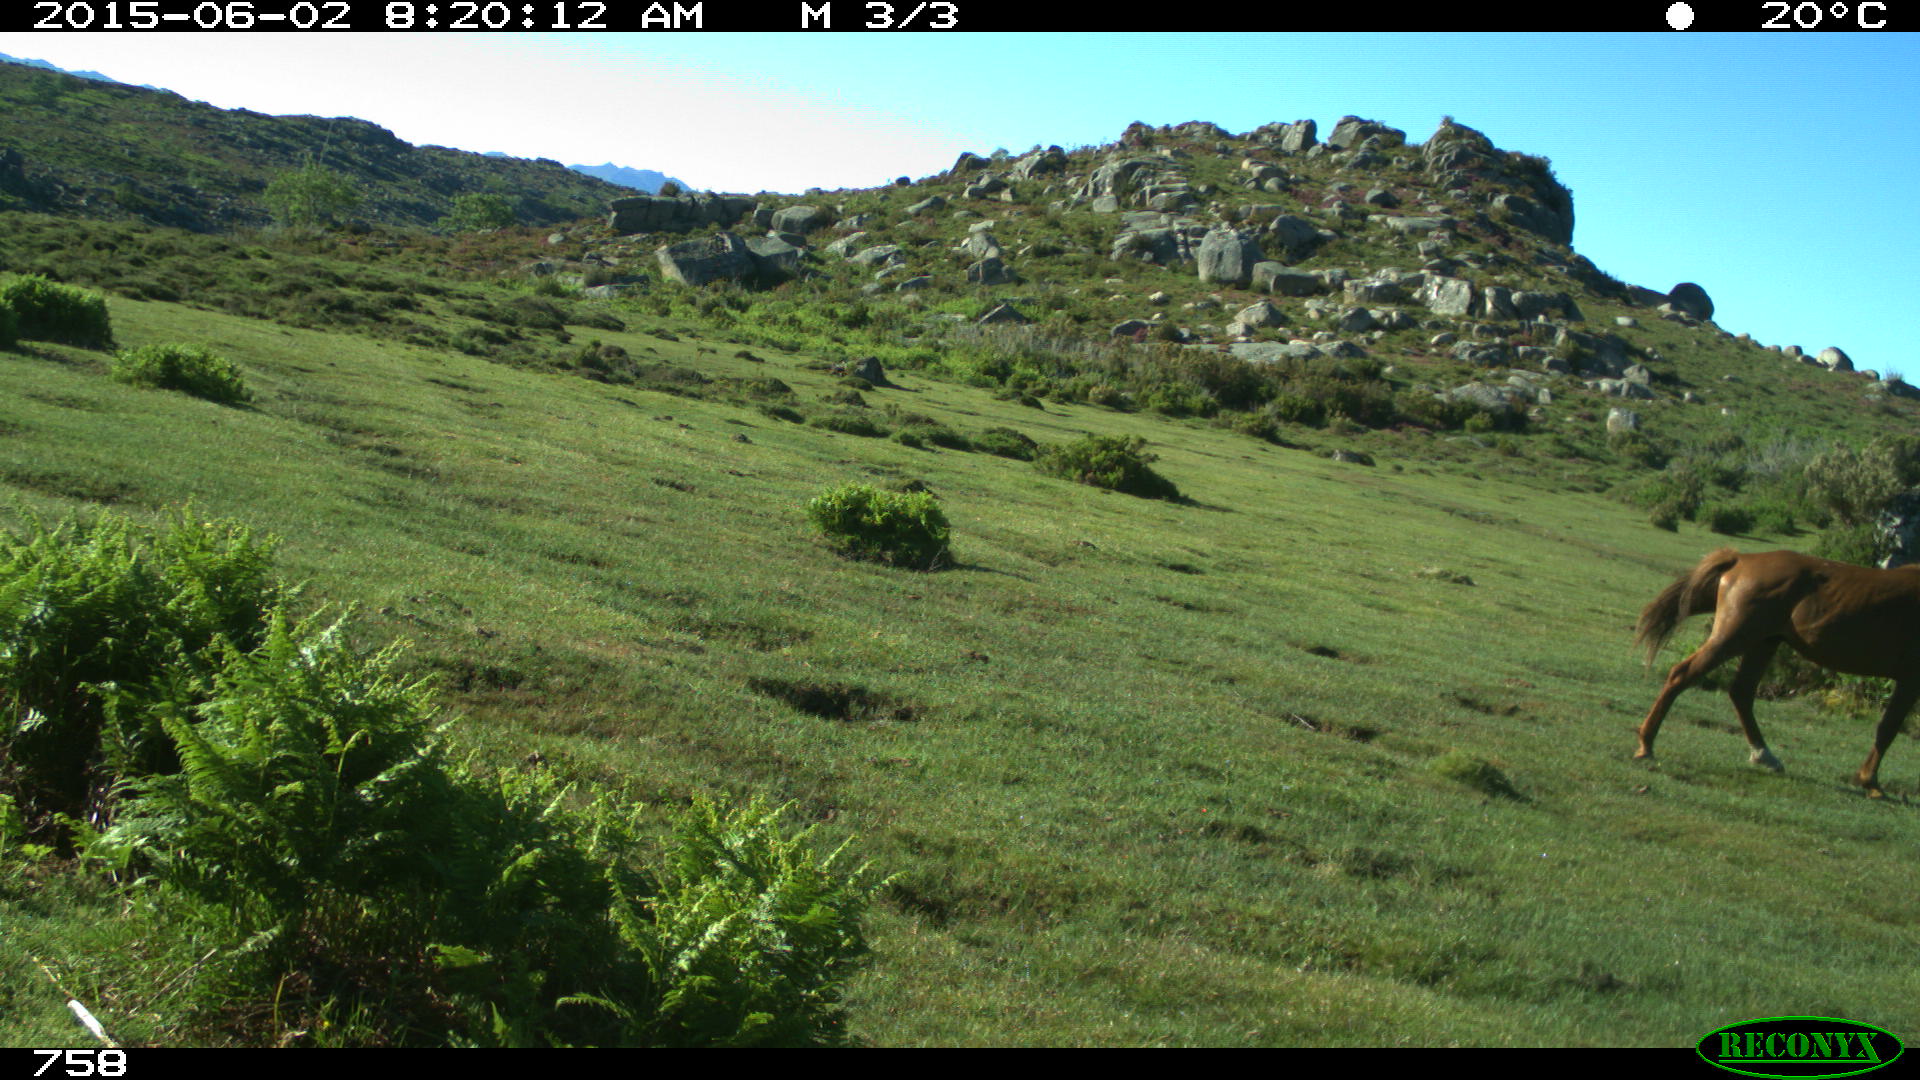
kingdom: Animalia
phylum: Chordata
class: Mammalia
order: Perissodactyla
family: Equidae
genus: Equus
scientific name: Equus caballus
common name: Horse
